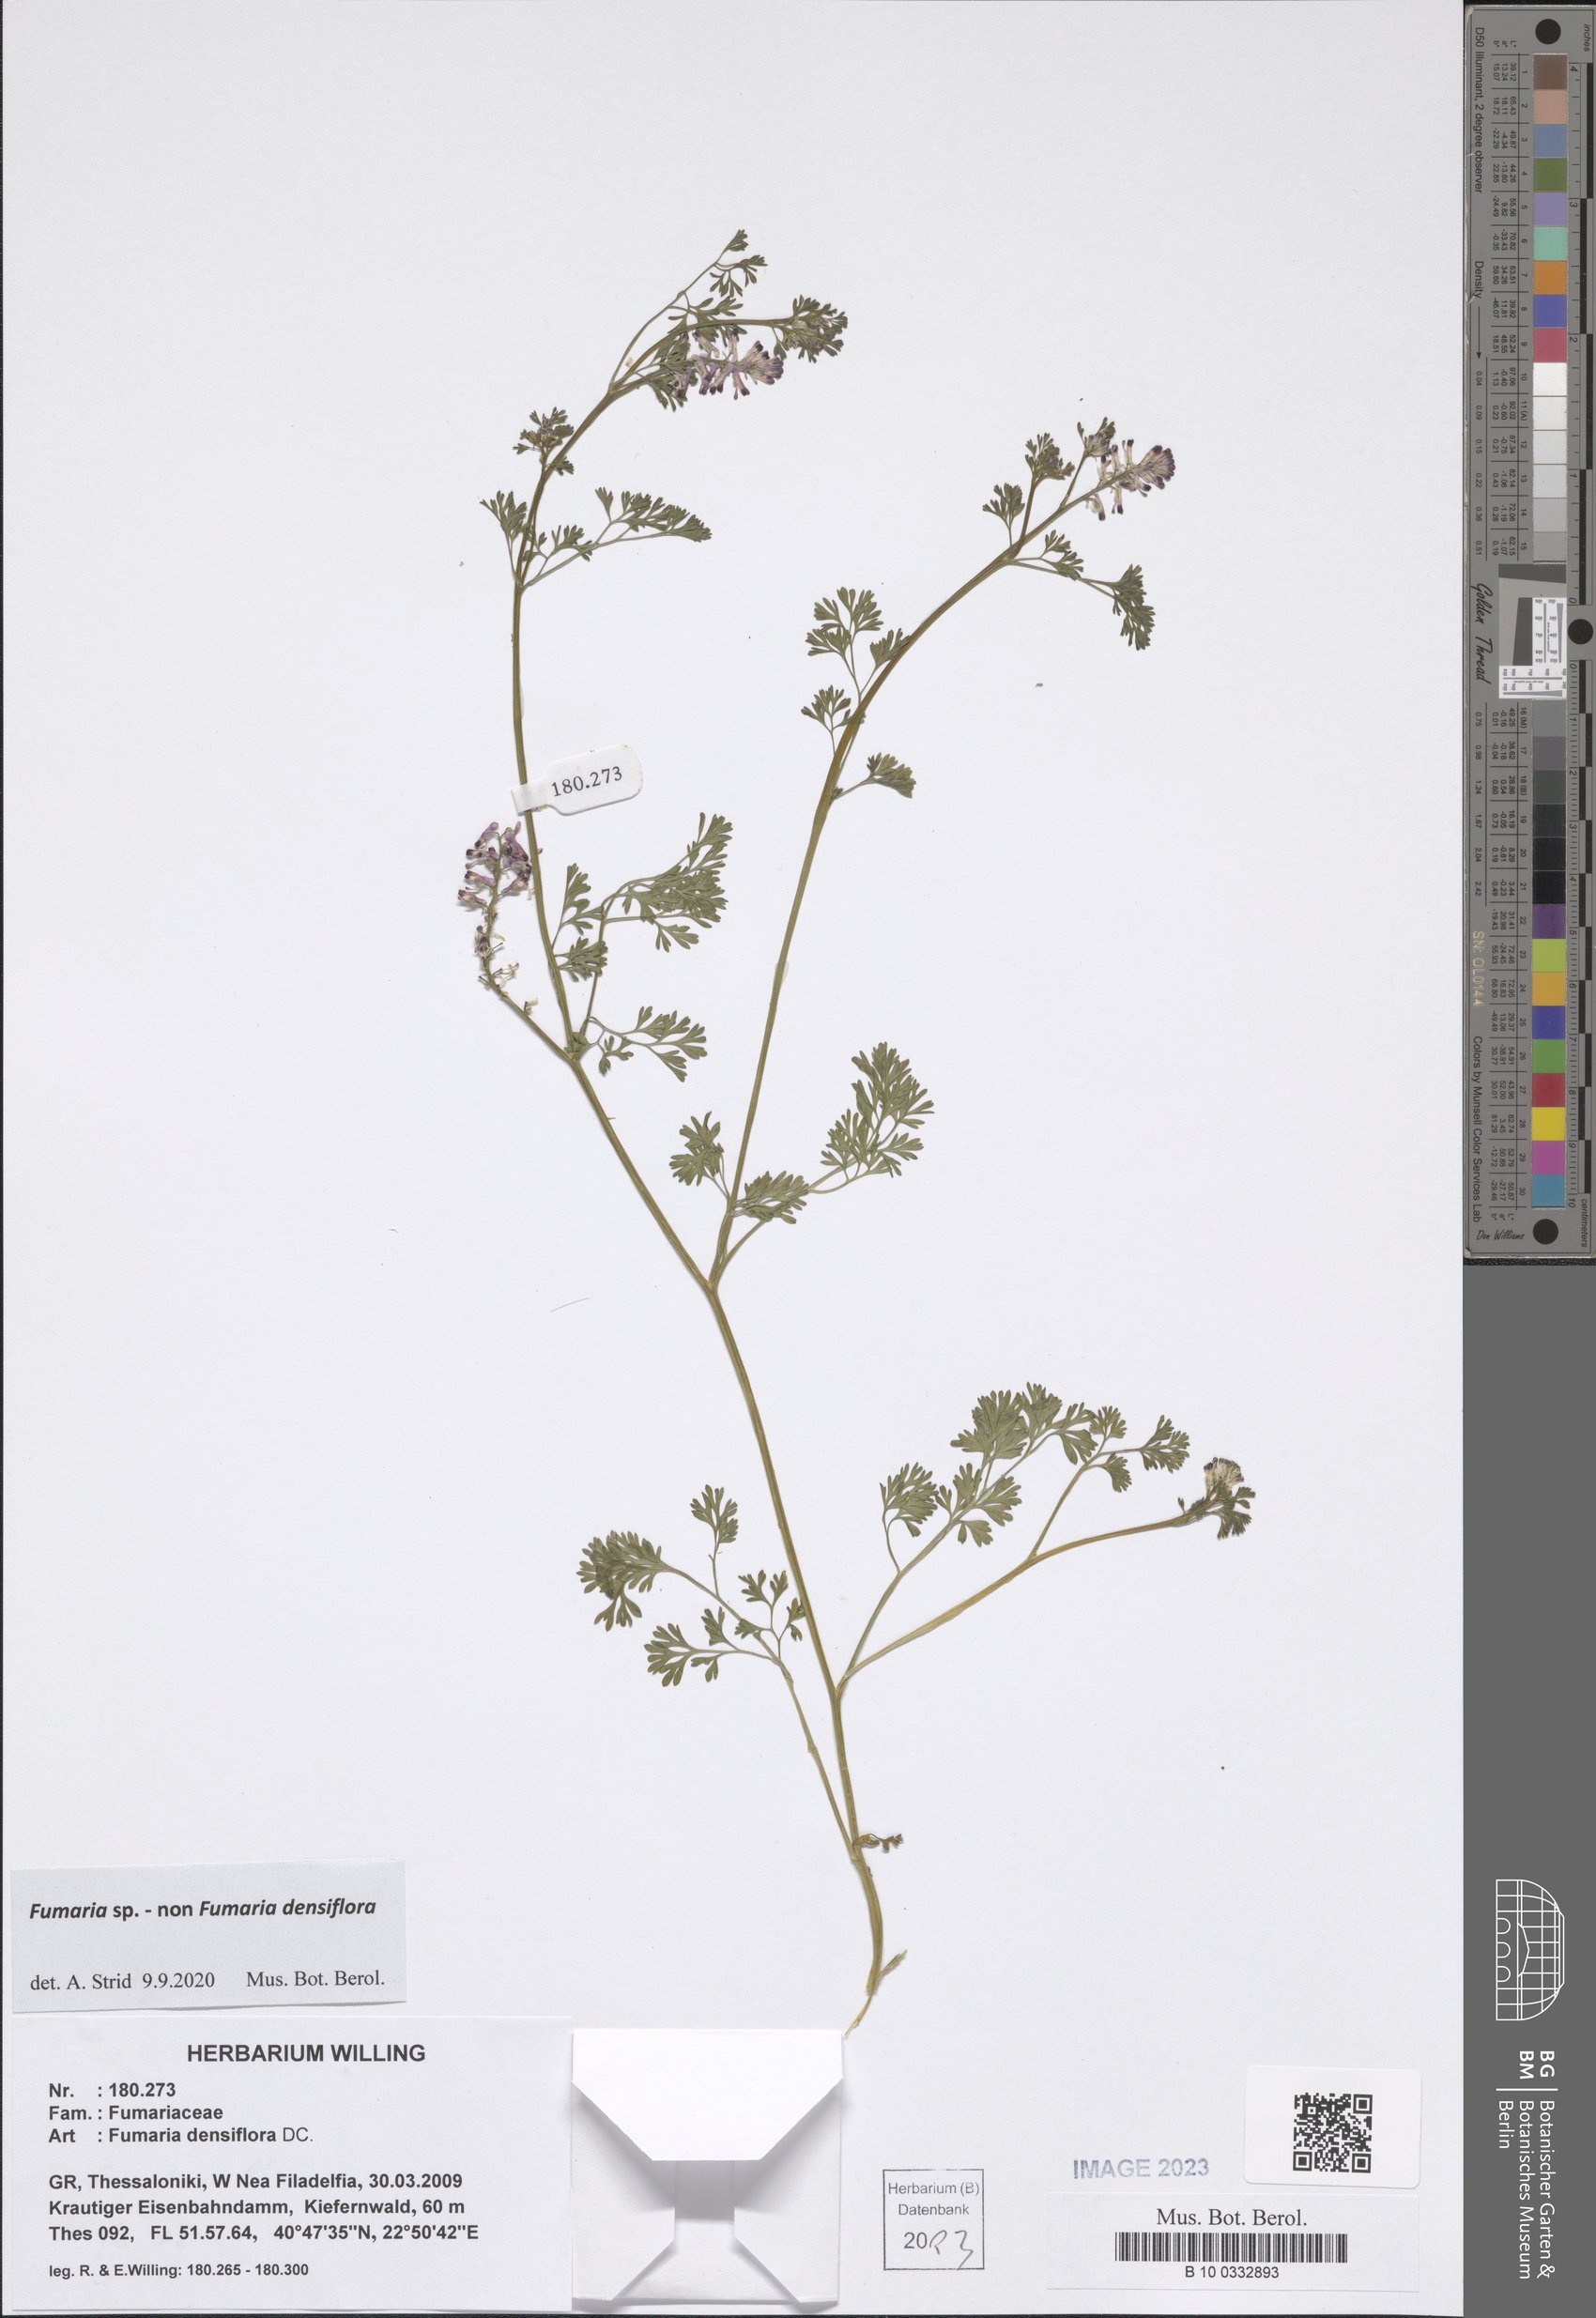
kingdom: Plantae
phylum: Tracheophyta
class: Magnoliopsida
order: Ranunculales
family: Papaveraceae
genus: Fumaria
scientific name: Fumaria
